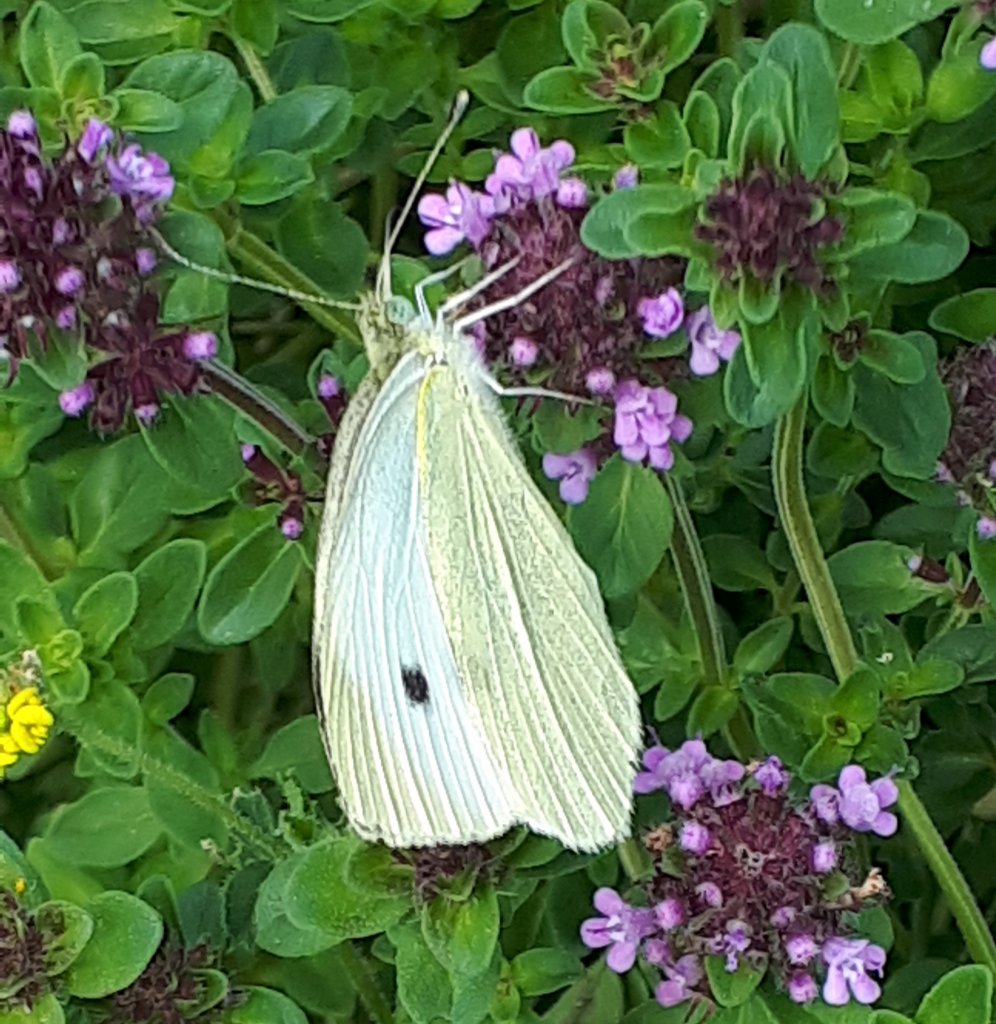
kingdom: Animalia
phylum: Arthropoda
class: Insecta
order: Lepidoptera
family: Pieridae
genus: Pieris
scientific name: Pieris rapae
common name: Cabbage White
